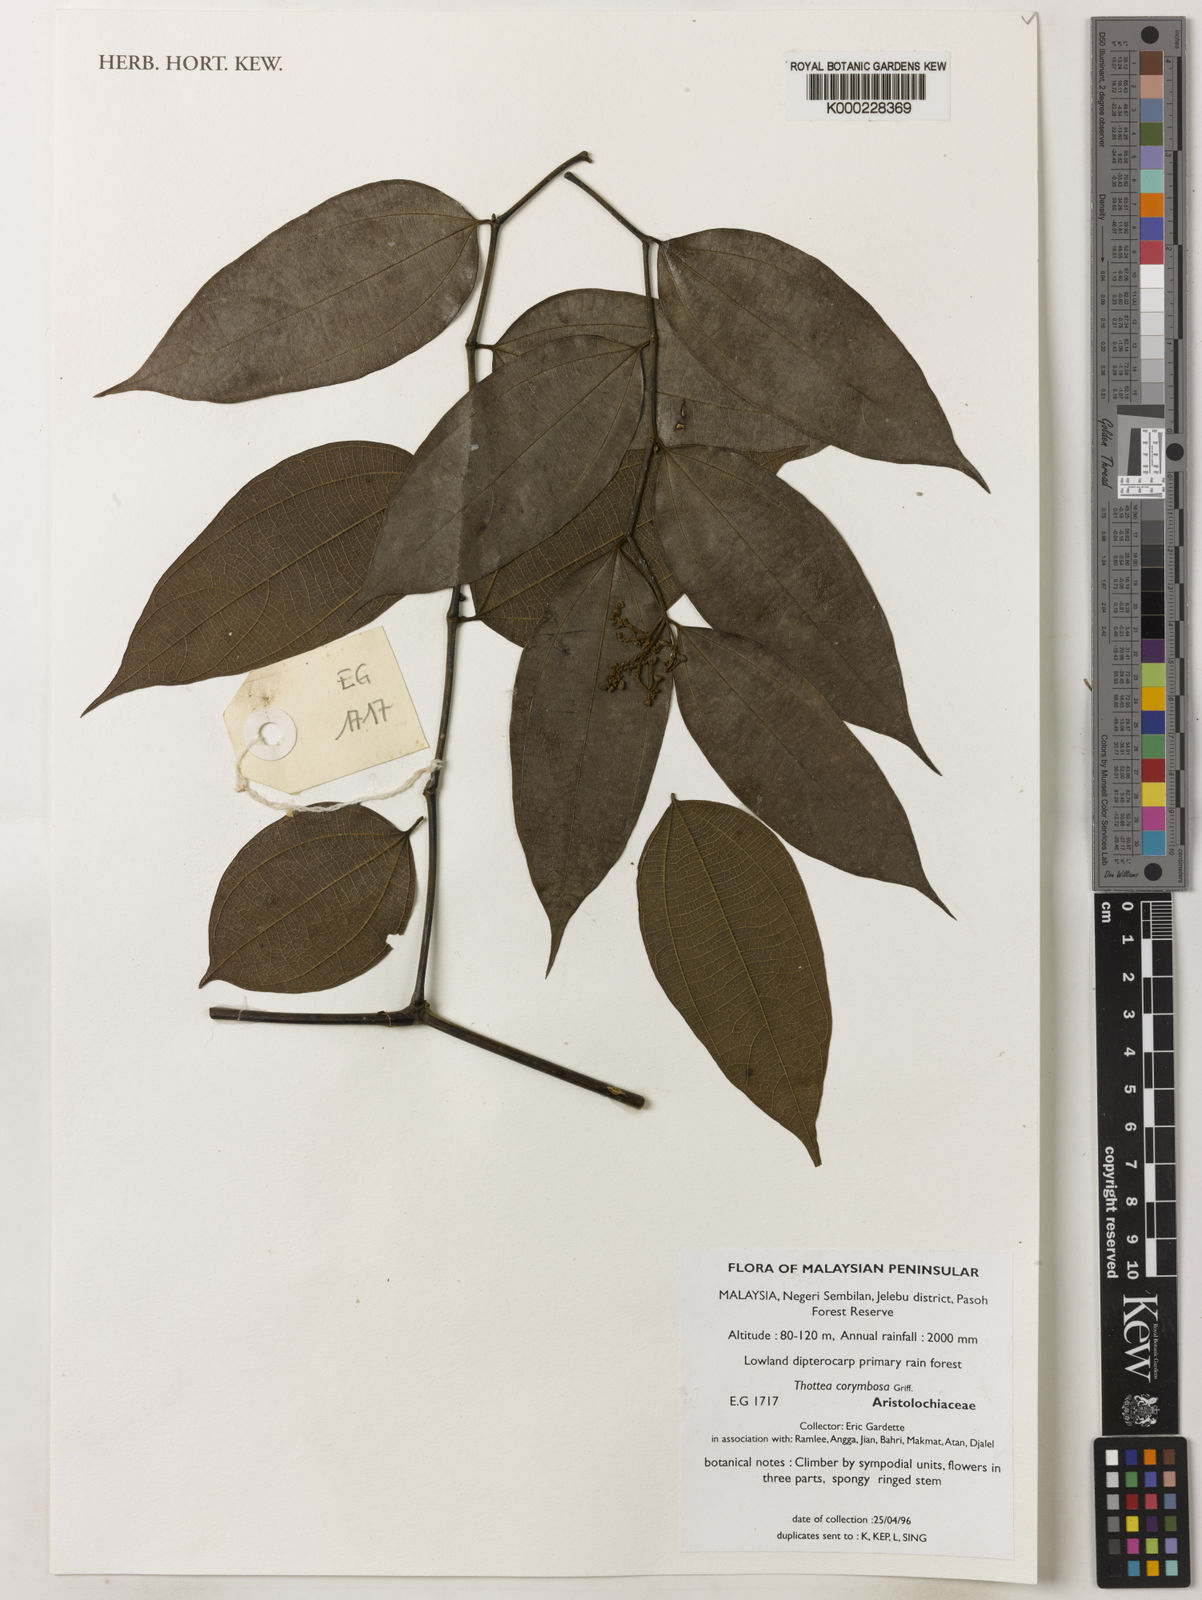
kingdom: Plantae
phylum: Tracheophyta
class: Magnoliopsida
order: Piperales
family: Aristolochiaceae
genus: Thottea
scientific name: Thottea
